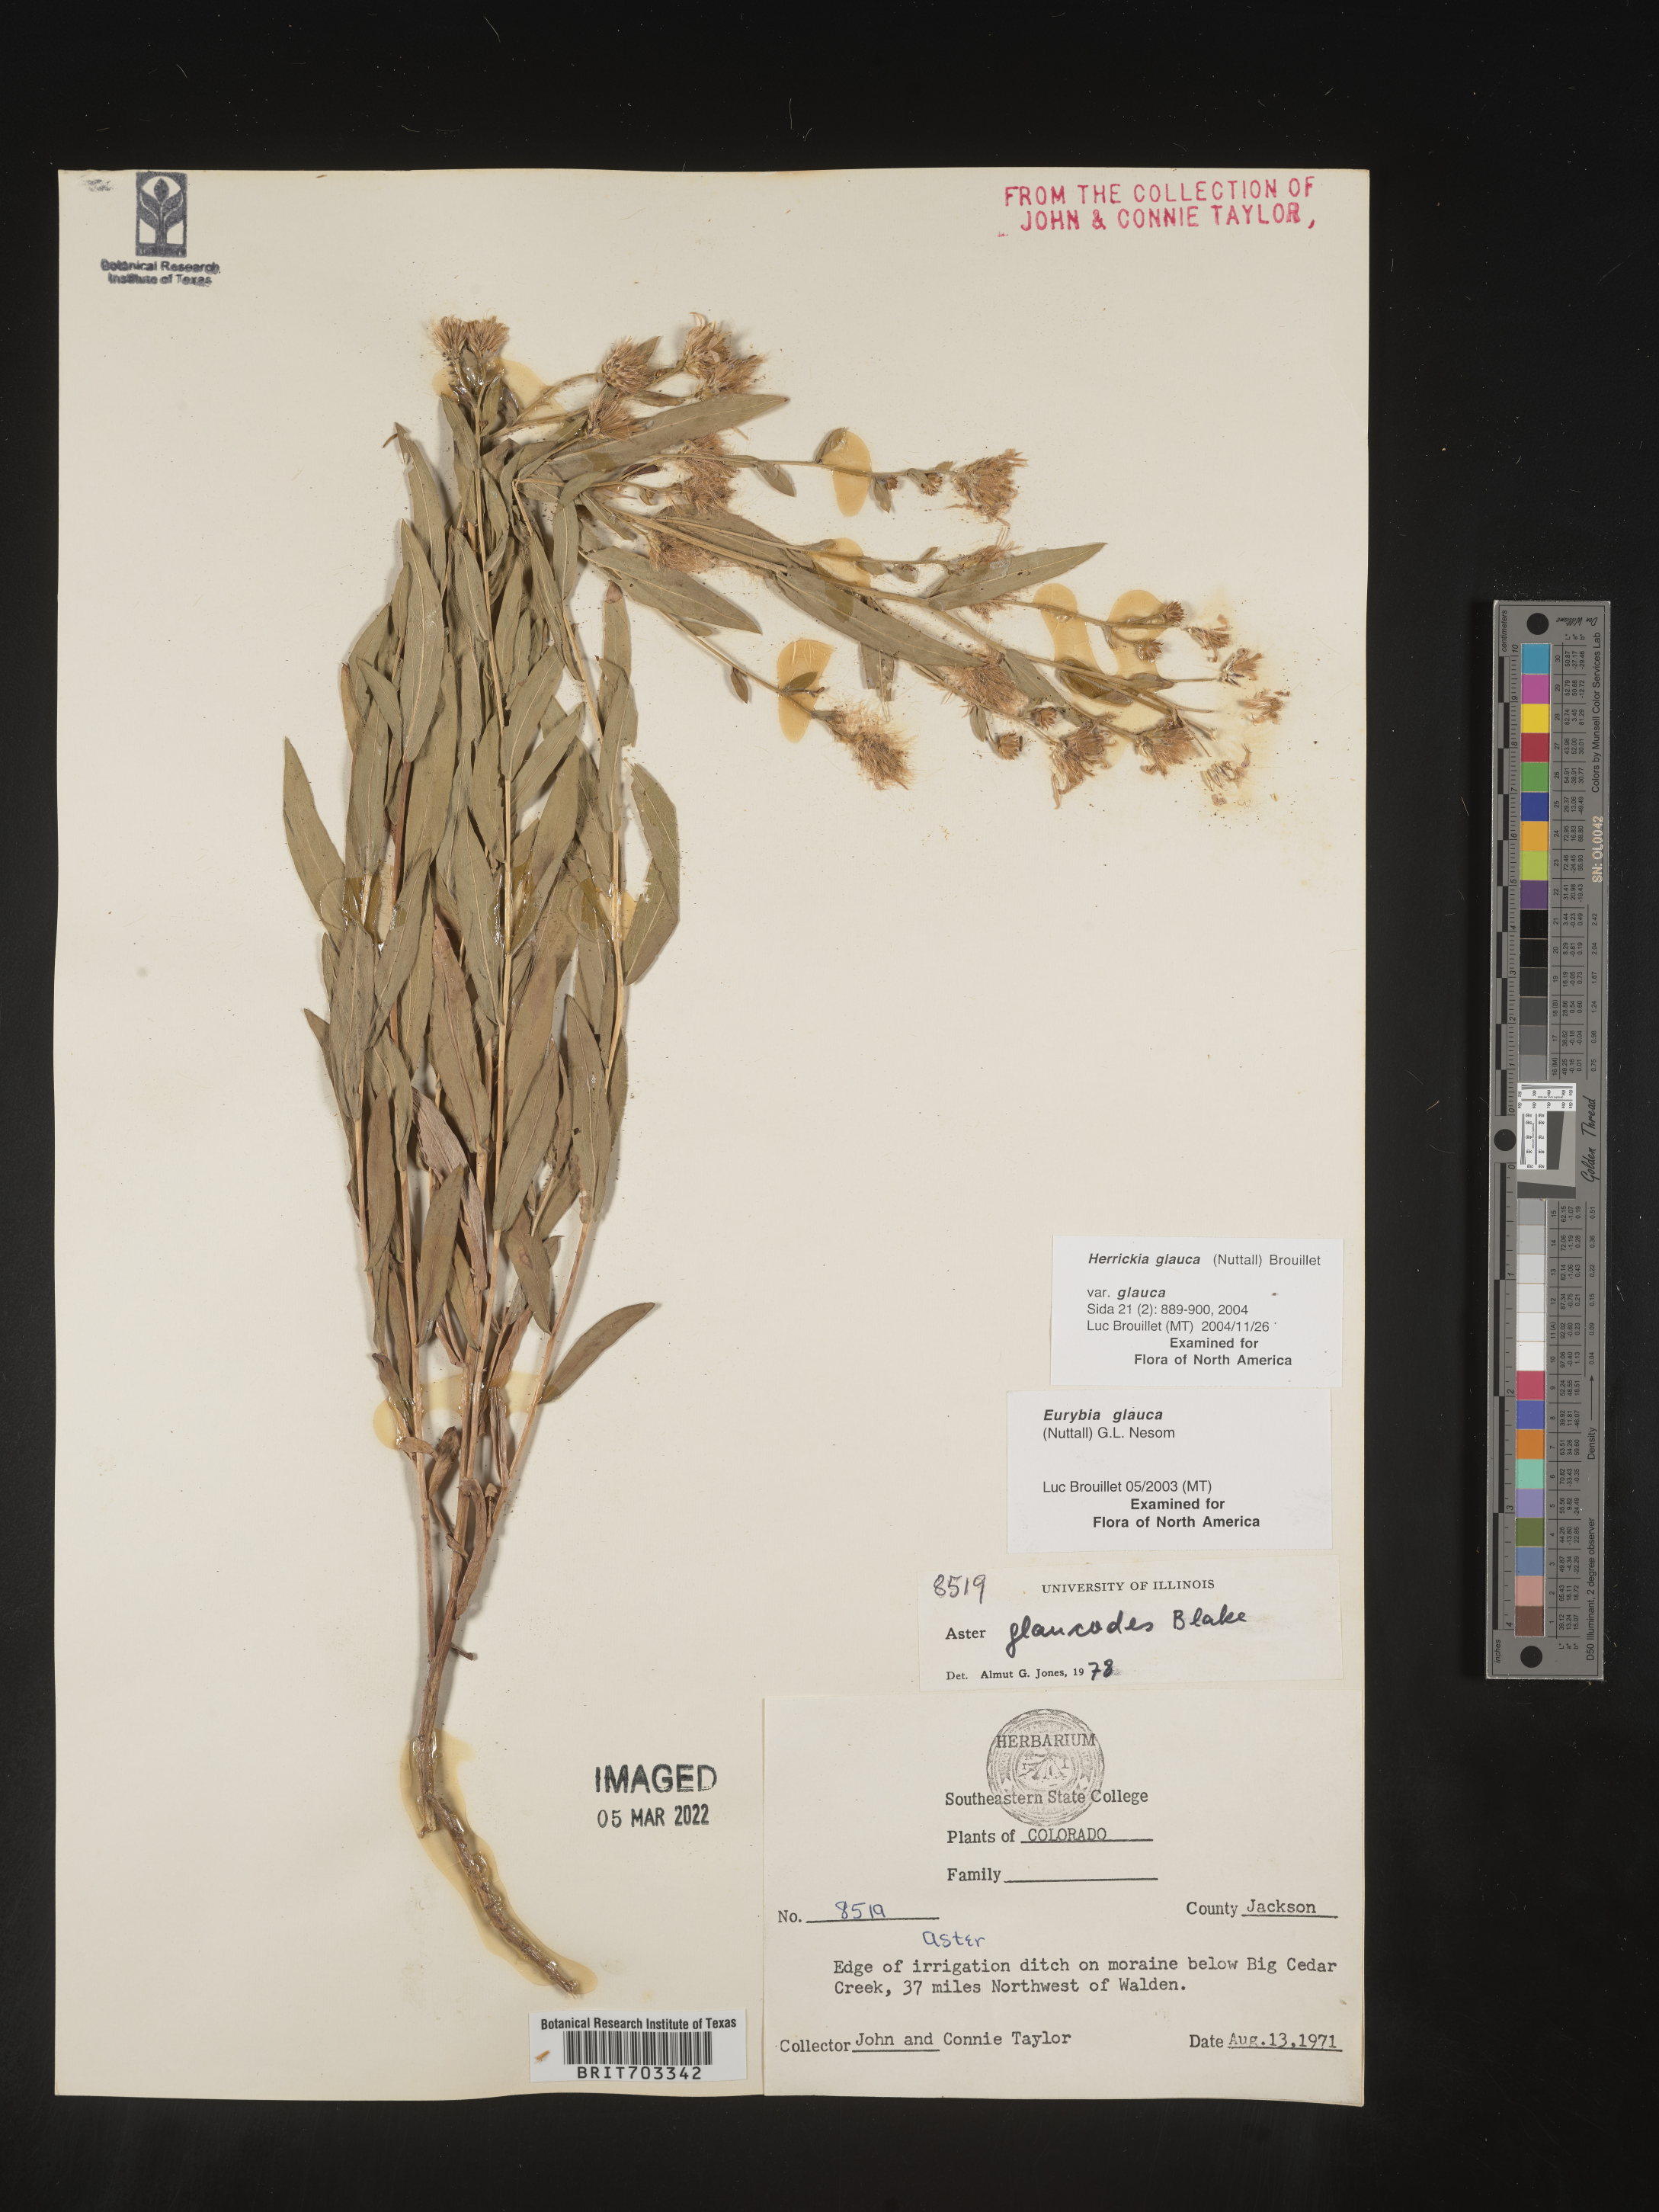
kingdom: Plantae
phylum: Tracheophyta
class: Magnoliopsida
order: Asterales
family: Asteraceae
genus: Eurybia
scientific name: Eurybia glauca
